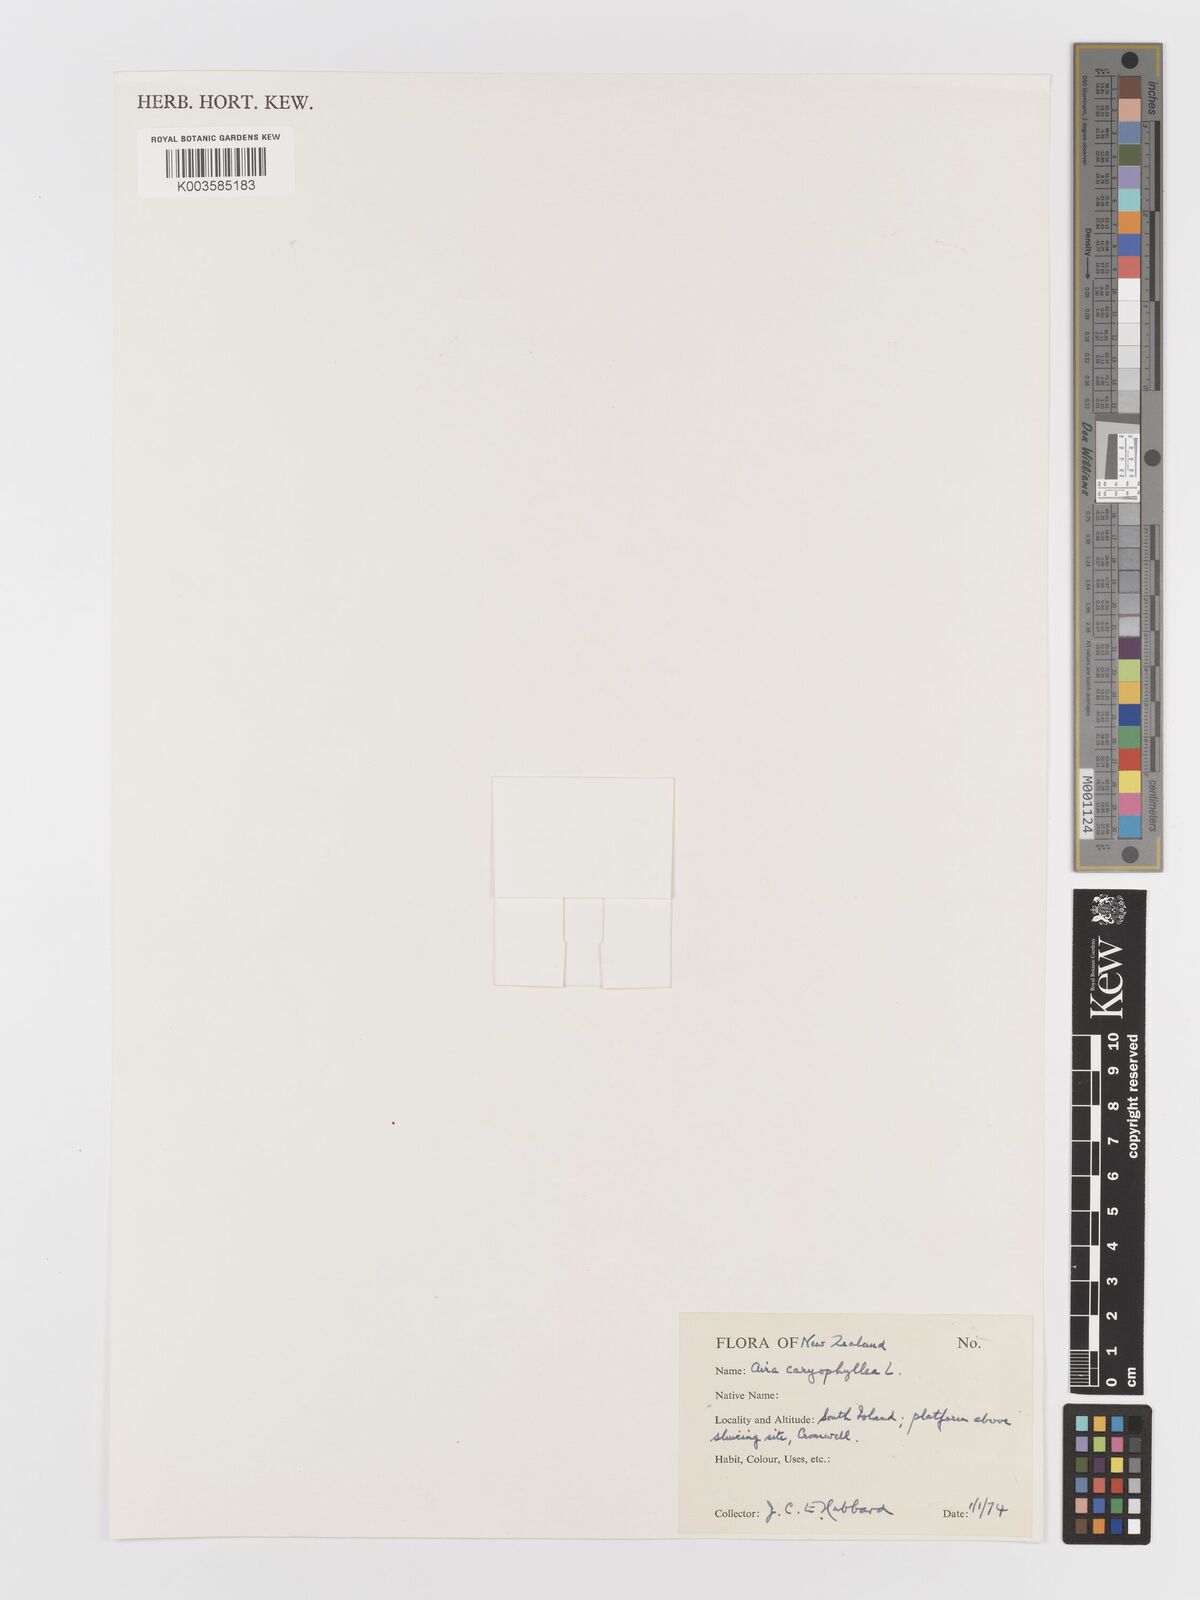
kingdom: Plantae
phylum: Tracheophyta
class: Liliopsida
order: Poales
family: Poaceae
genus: Aira
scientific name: Aira cupaniana
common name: Silver hairgrass
